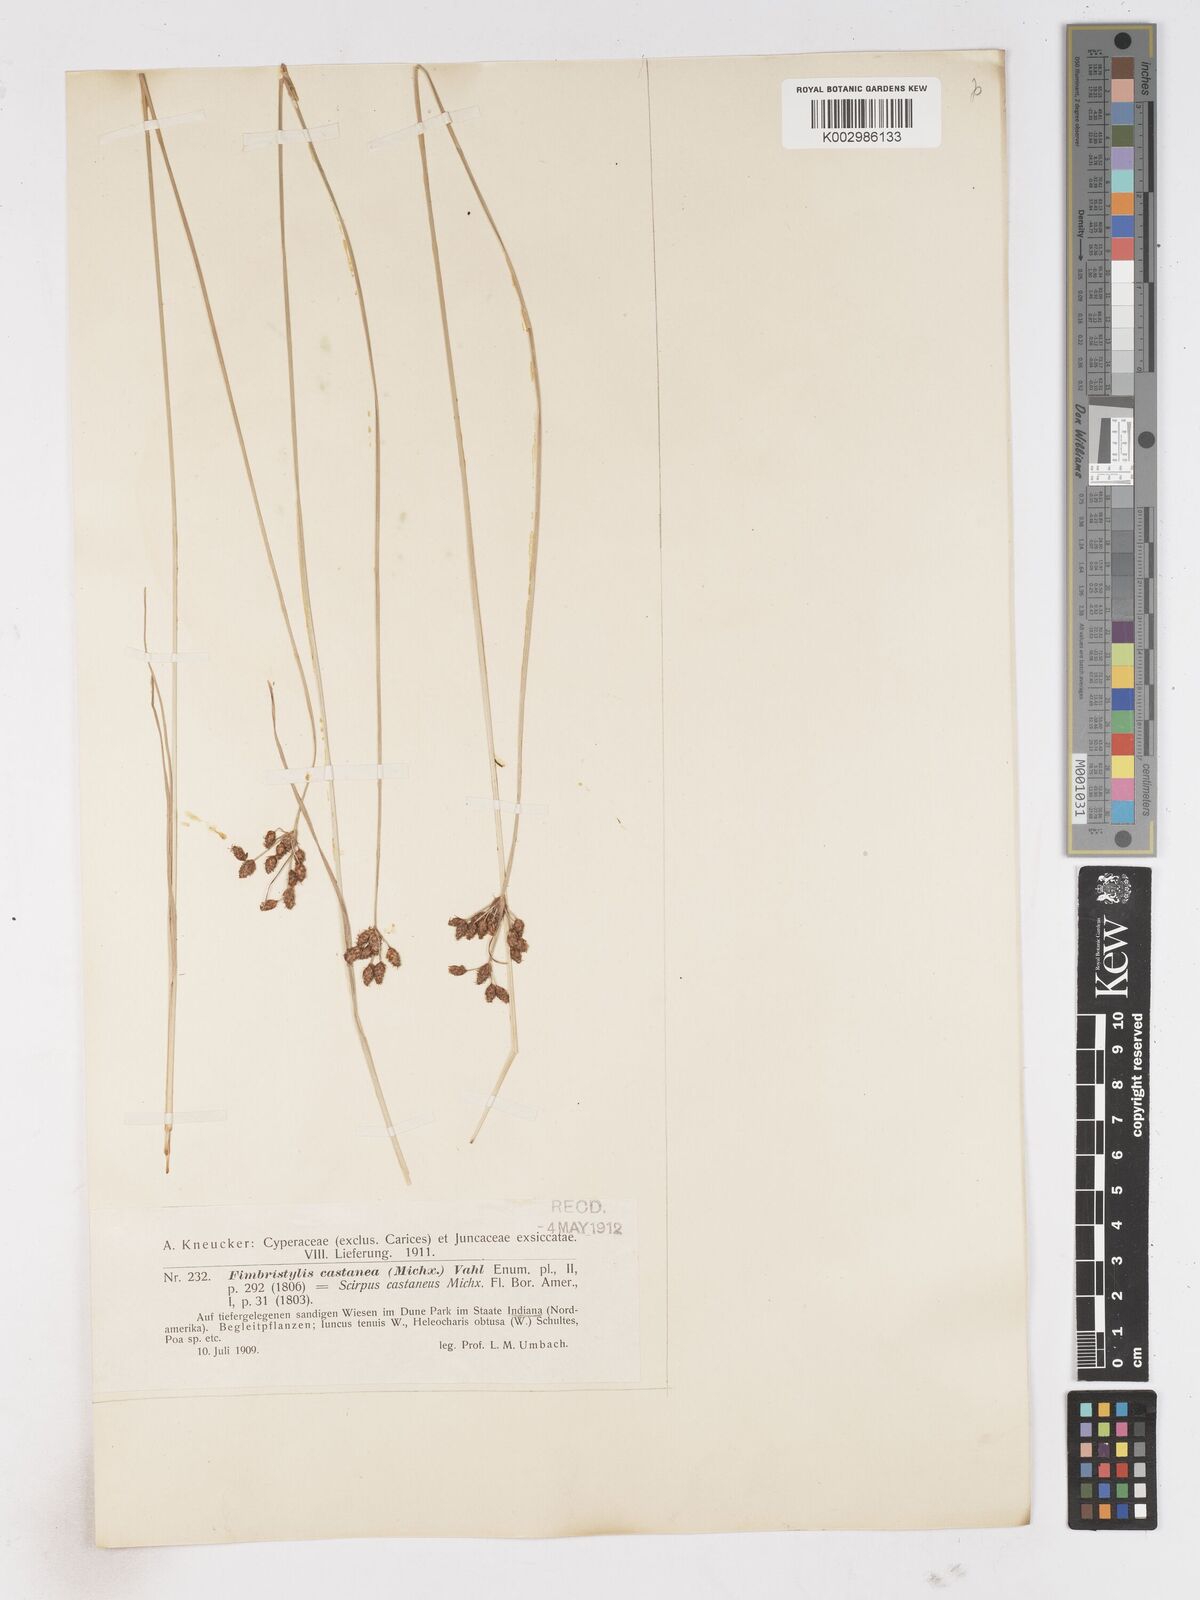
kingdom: Plantae
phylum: Tracheophyta
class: Liliopsida
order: Poales
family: Cyperaceae
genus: Fimbristylis
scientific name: Fimbristylis puberula
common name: Hairy fimbristylis
